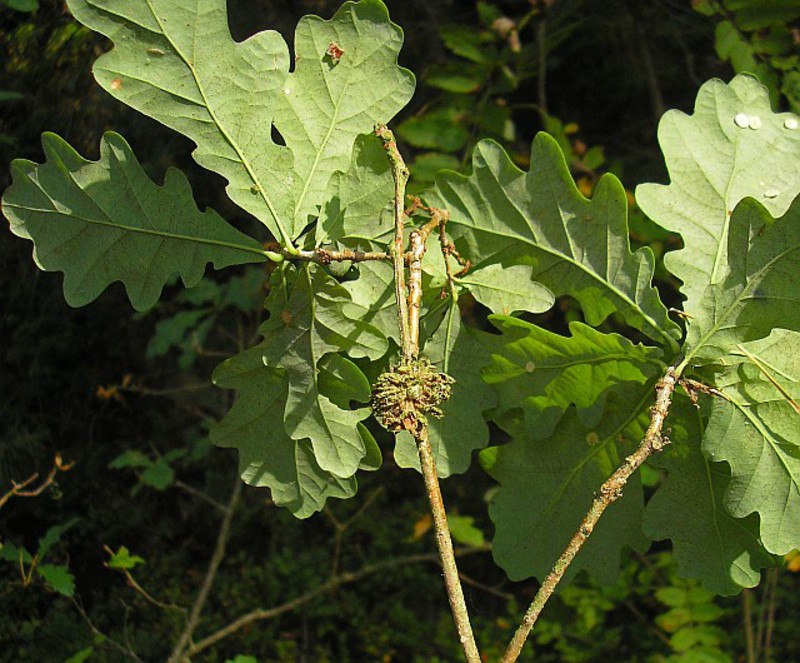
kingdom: Animalia
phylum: Arthropoda
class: Insecta
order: Hymenoptera
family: Cynipidae
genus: Andricus
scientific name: Andricus foecundatrix
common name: Artichoke gall
